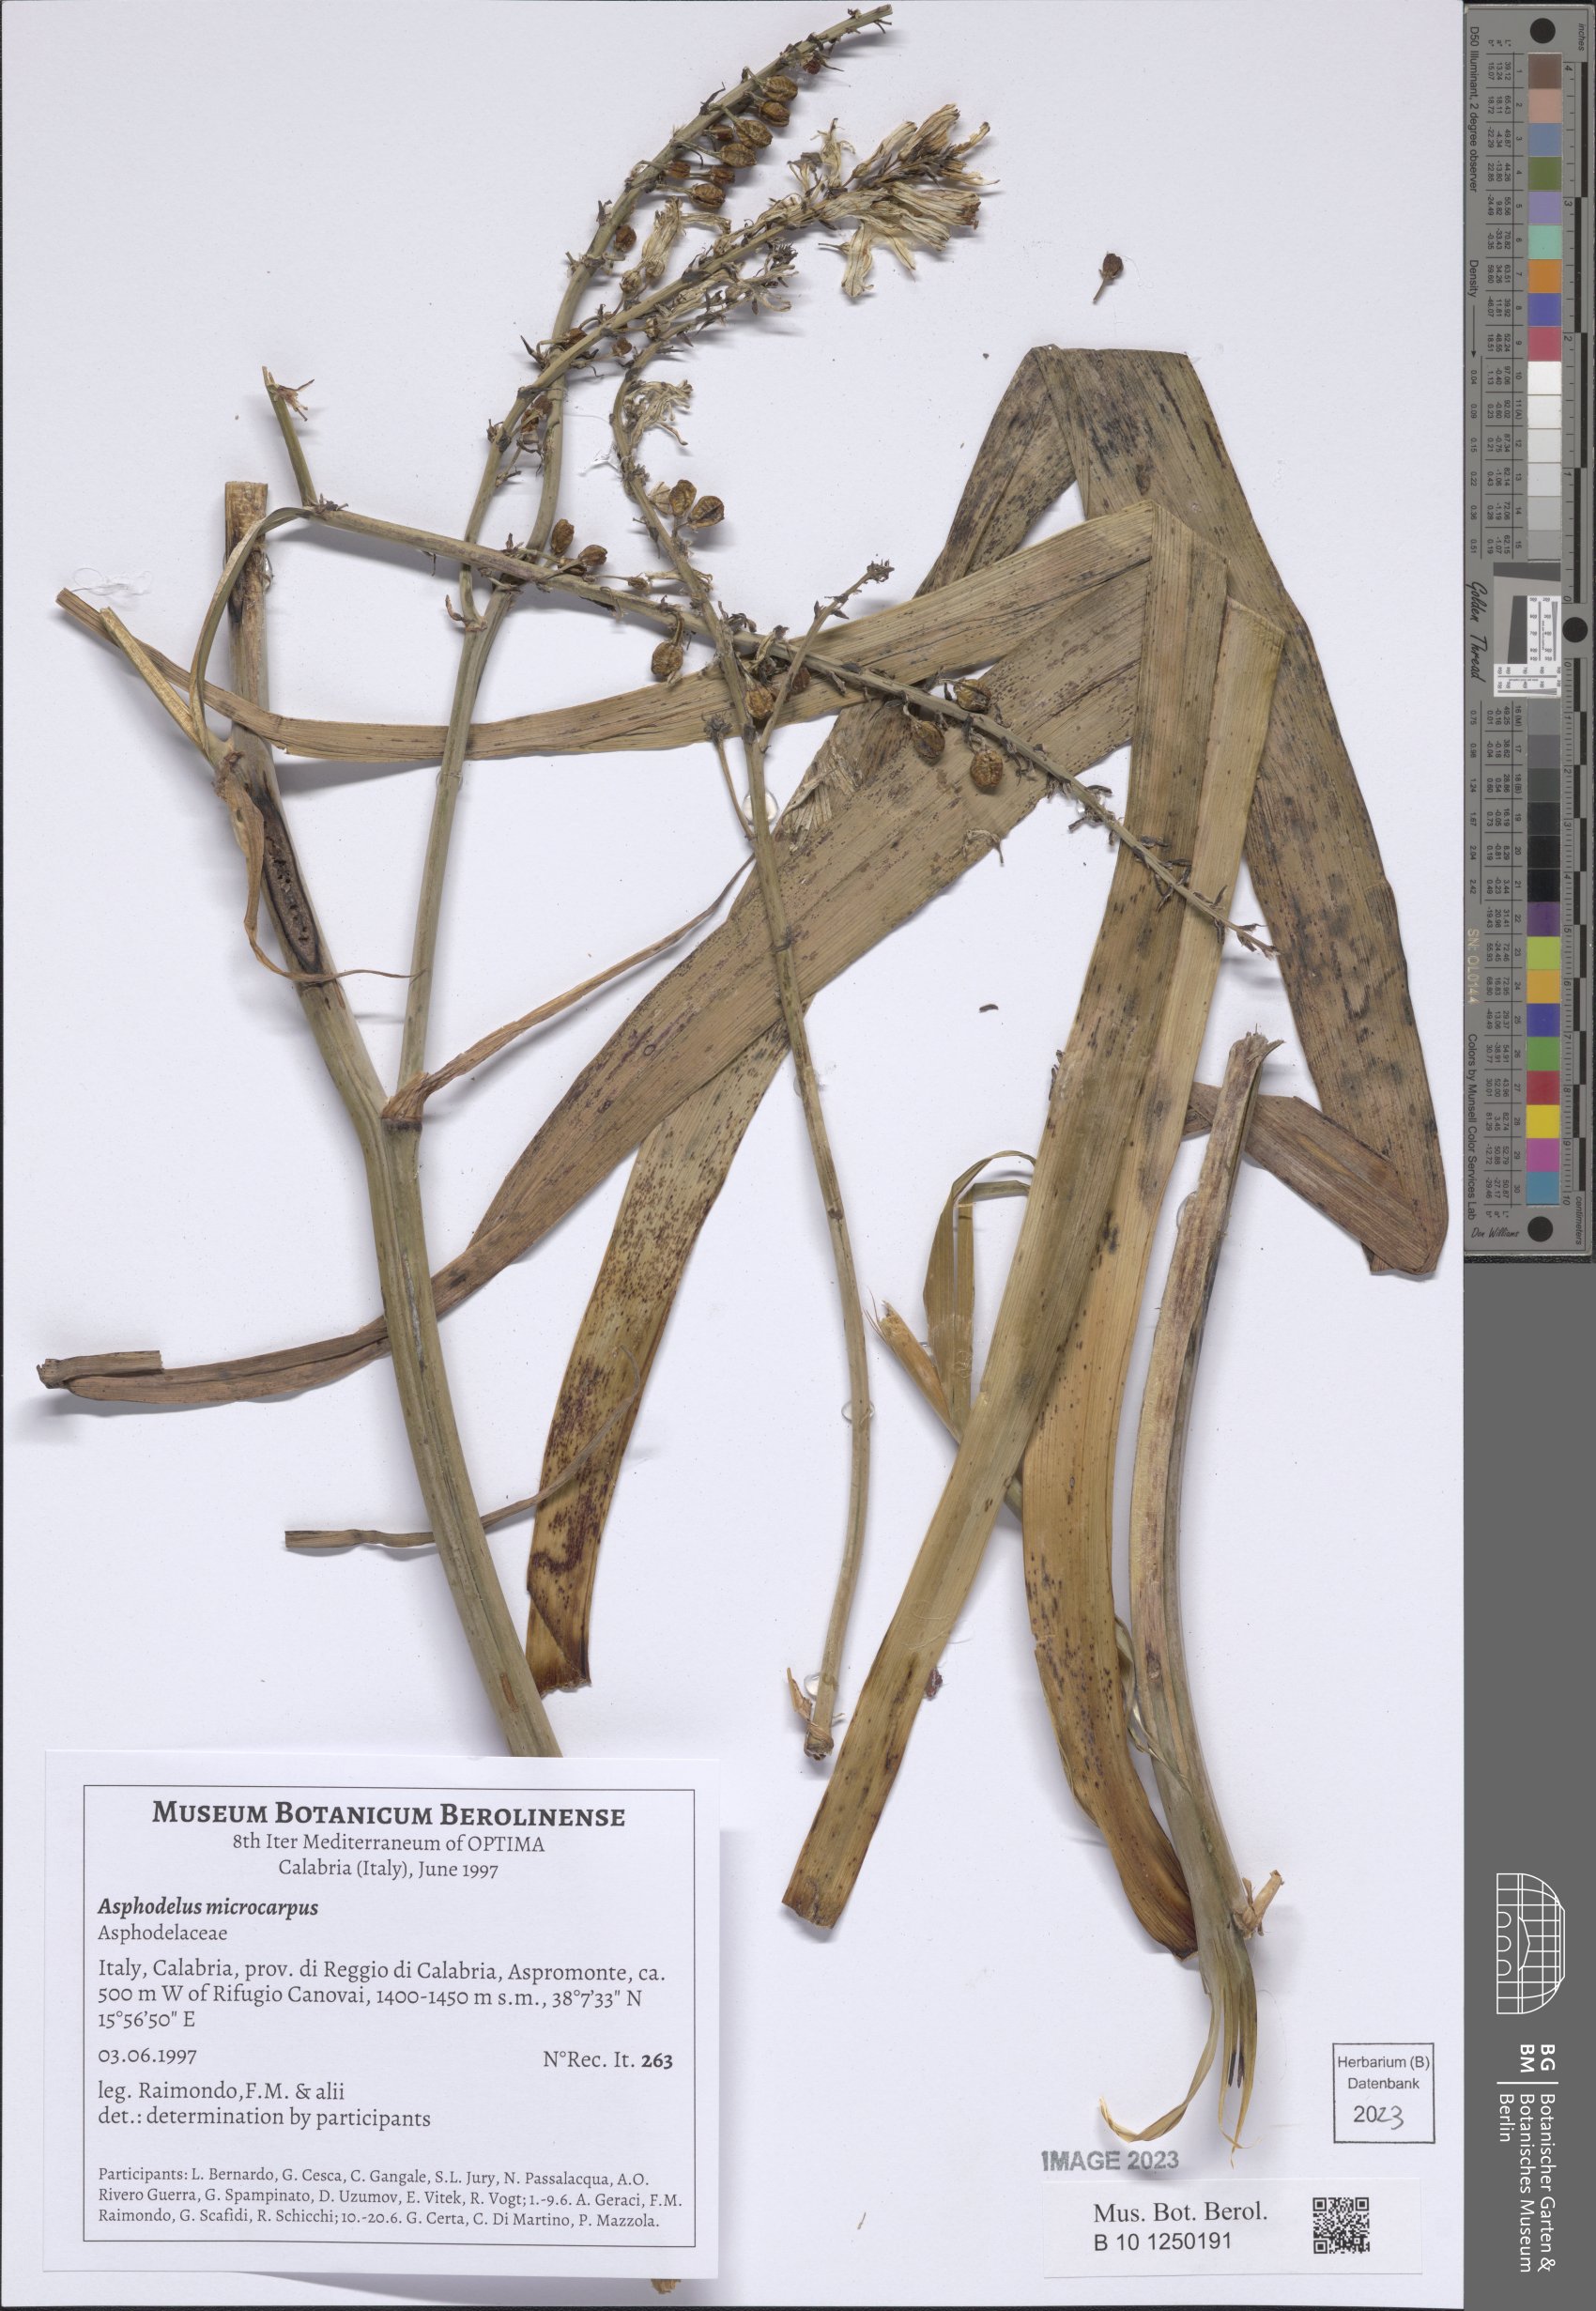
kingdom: Plantae
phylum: Tracheophyta
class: Liliopsida
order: Asparagales
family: Asphodelaceae
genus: Asphodelus
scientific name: Asphodelus ramosus
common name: Silverrod
